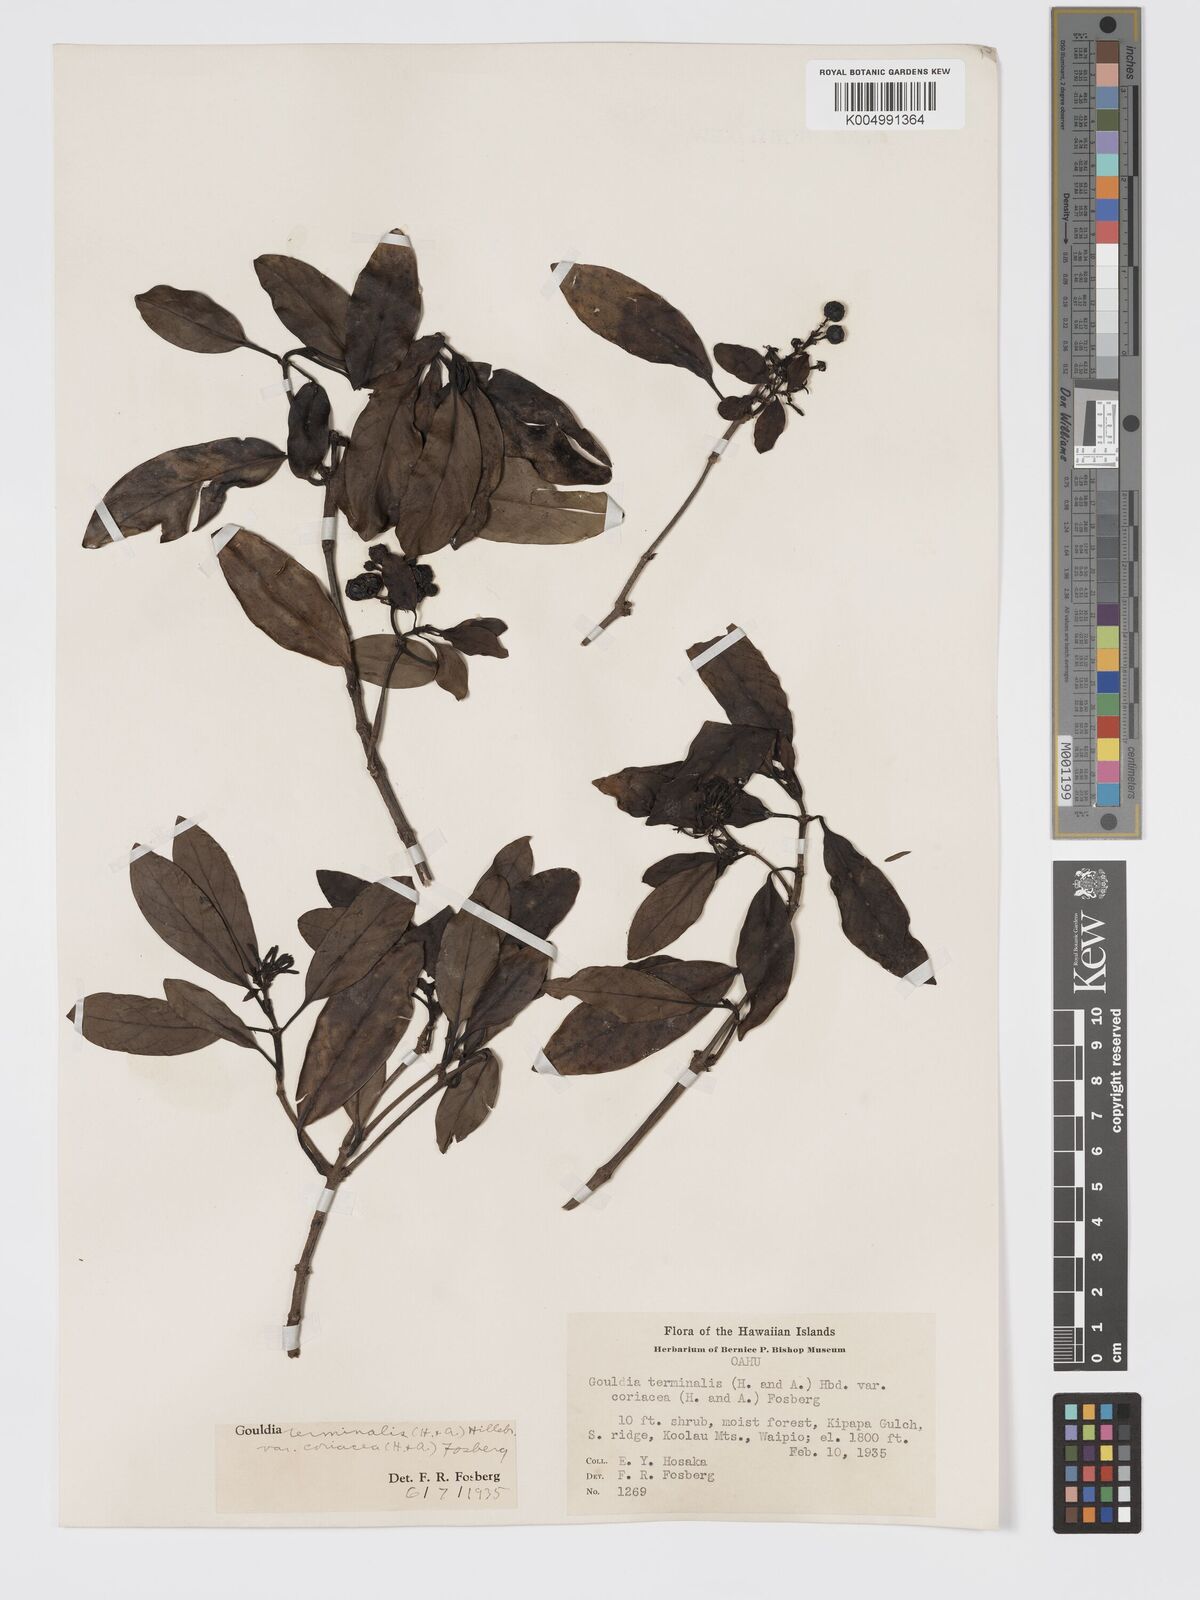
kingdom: Plantae
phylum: Tracheophyta
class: Magnoliopsida
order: Gentianales
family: Rubiaceae
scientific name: Rubiaceae
